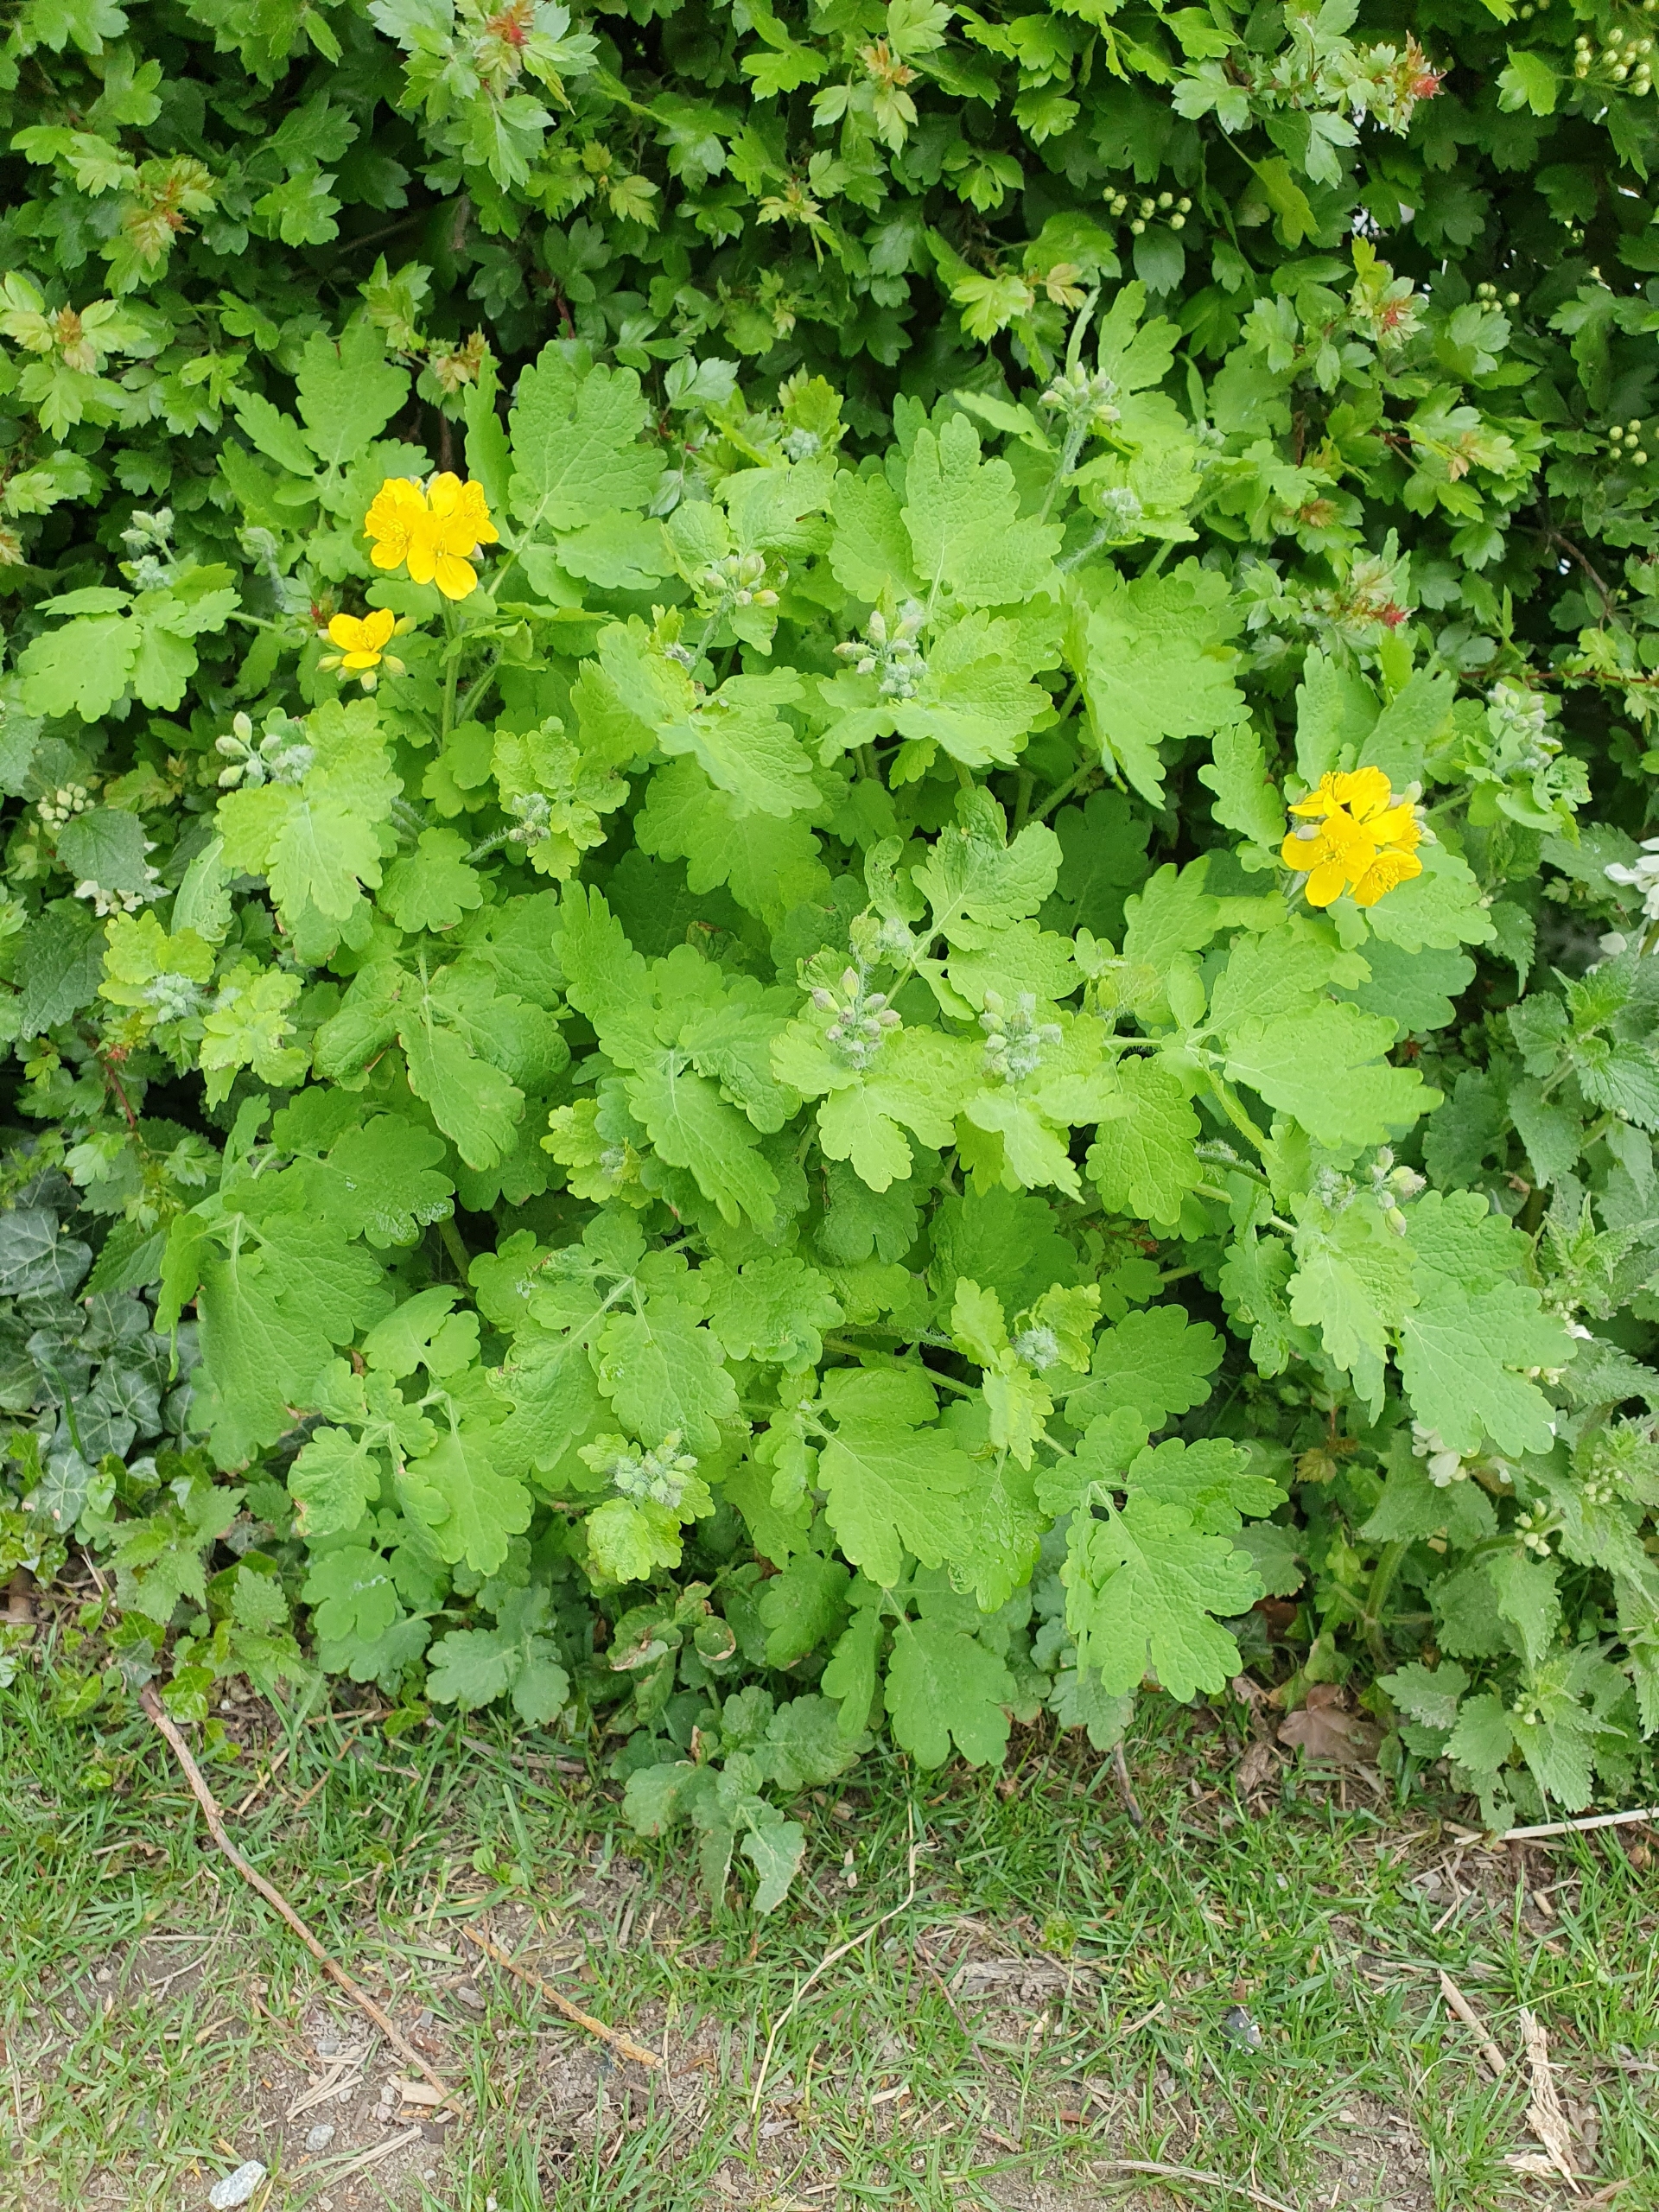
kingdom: Plantae
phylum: Tracheophyta
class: Magnoliopsida
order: Ranunculales
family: Papaveraceae
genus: Chelidonium
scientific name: Chelidonium majus
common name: Svaleurt
